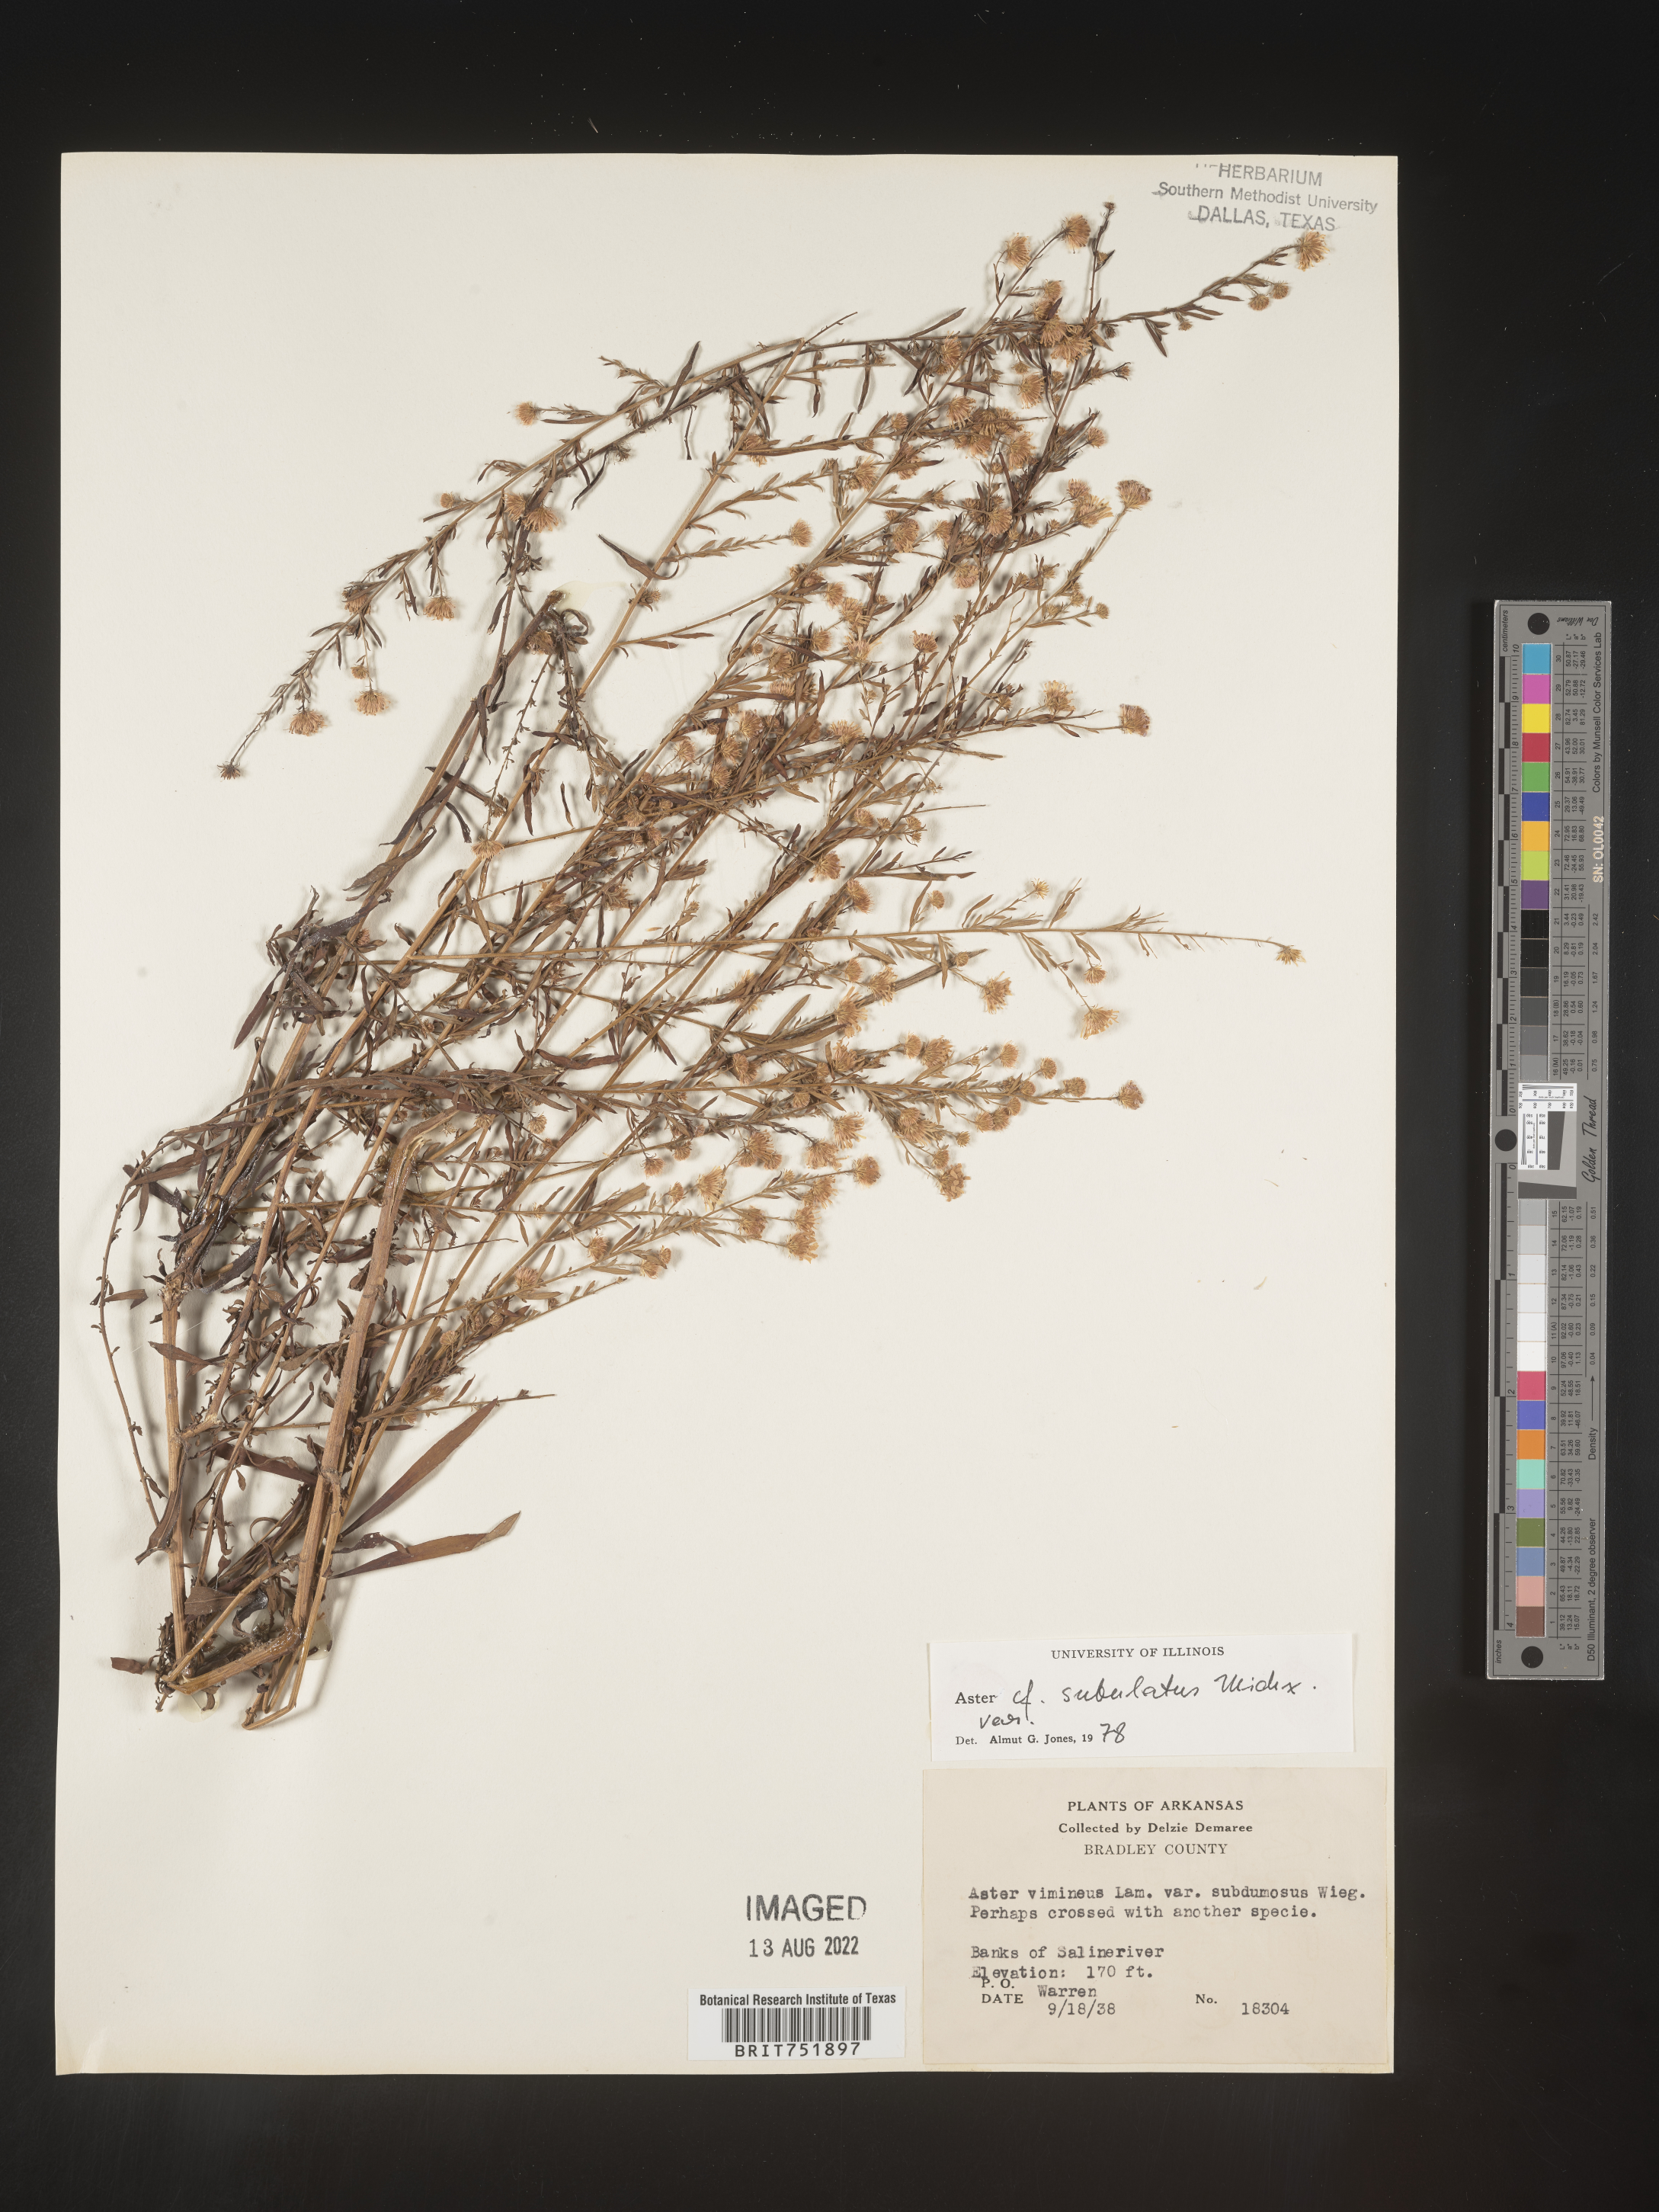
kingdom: Plantae
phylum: Tracheophyta
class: Magnoliopsida
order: Asterales
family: Asteraceae
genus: Symphyotrichum
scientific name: Symphyotrichum divaricatum
